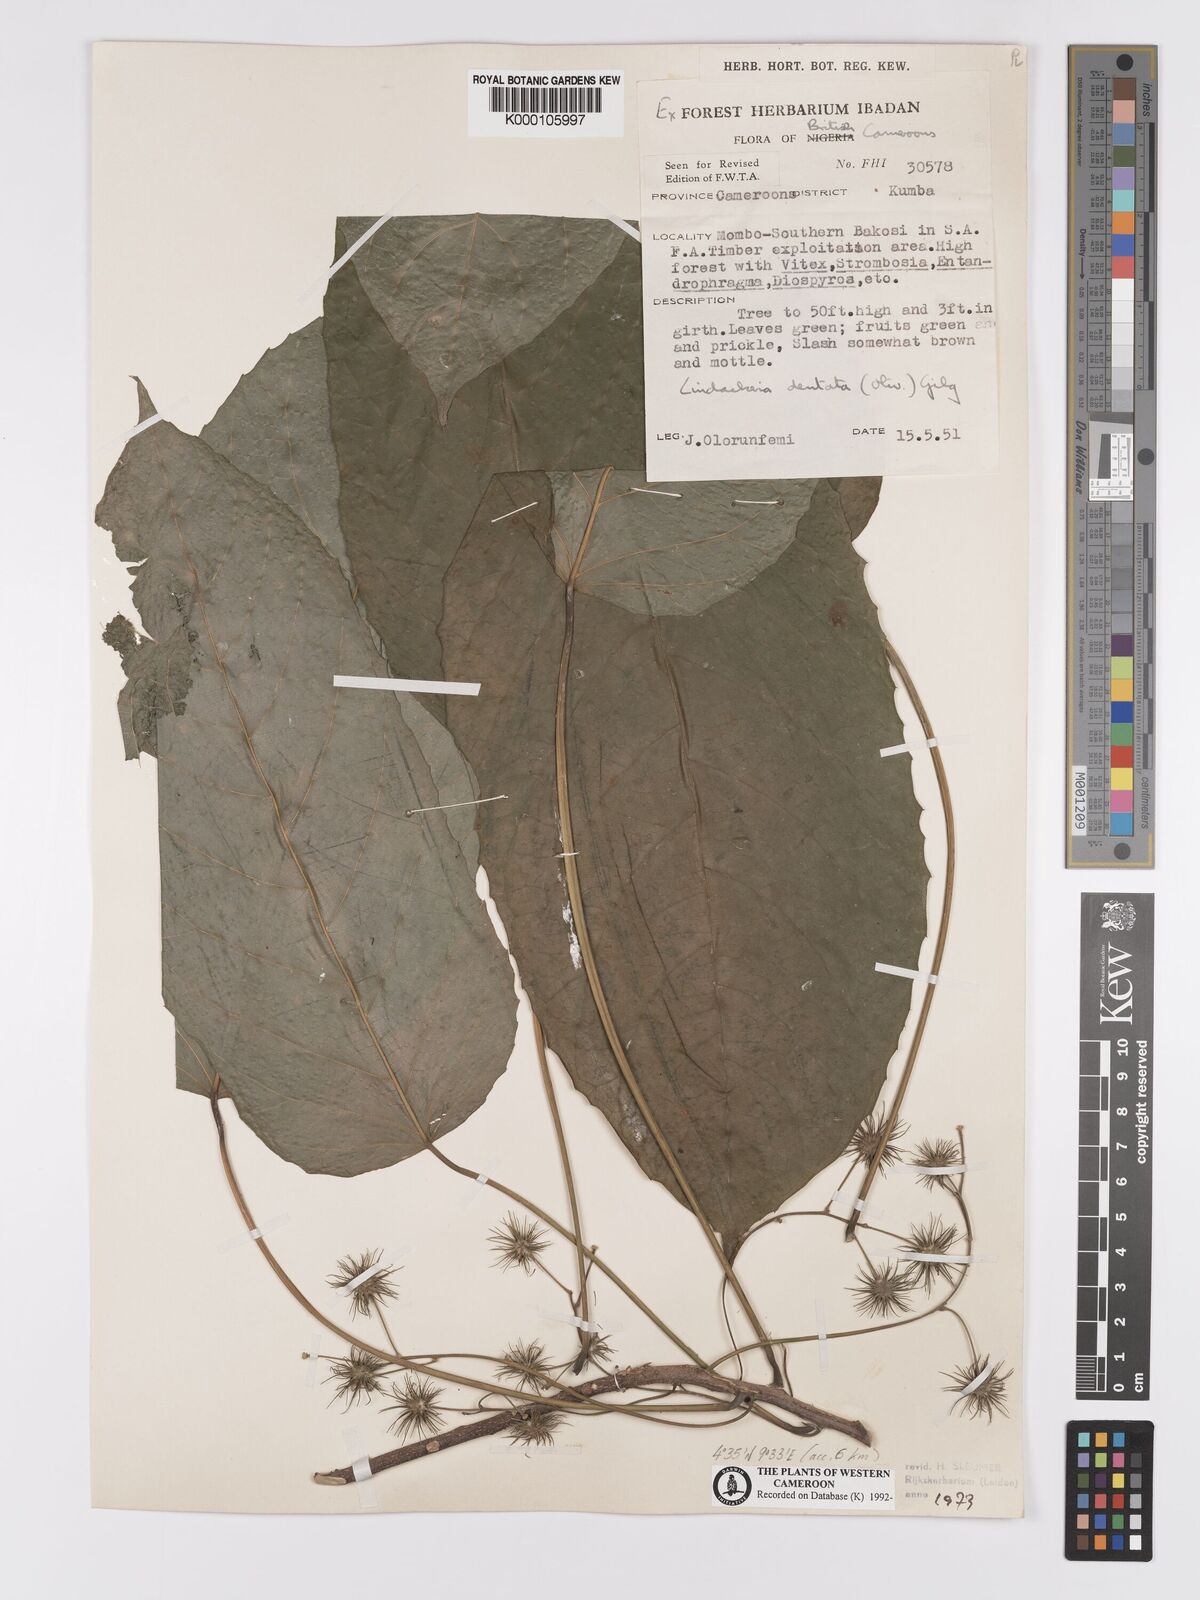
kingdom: Plantae
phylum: Tracheophyta
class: Magnoliopsida
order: Malpighiales
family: Achariaceae
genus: Lindackeria
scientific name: Lindackeria dentata
